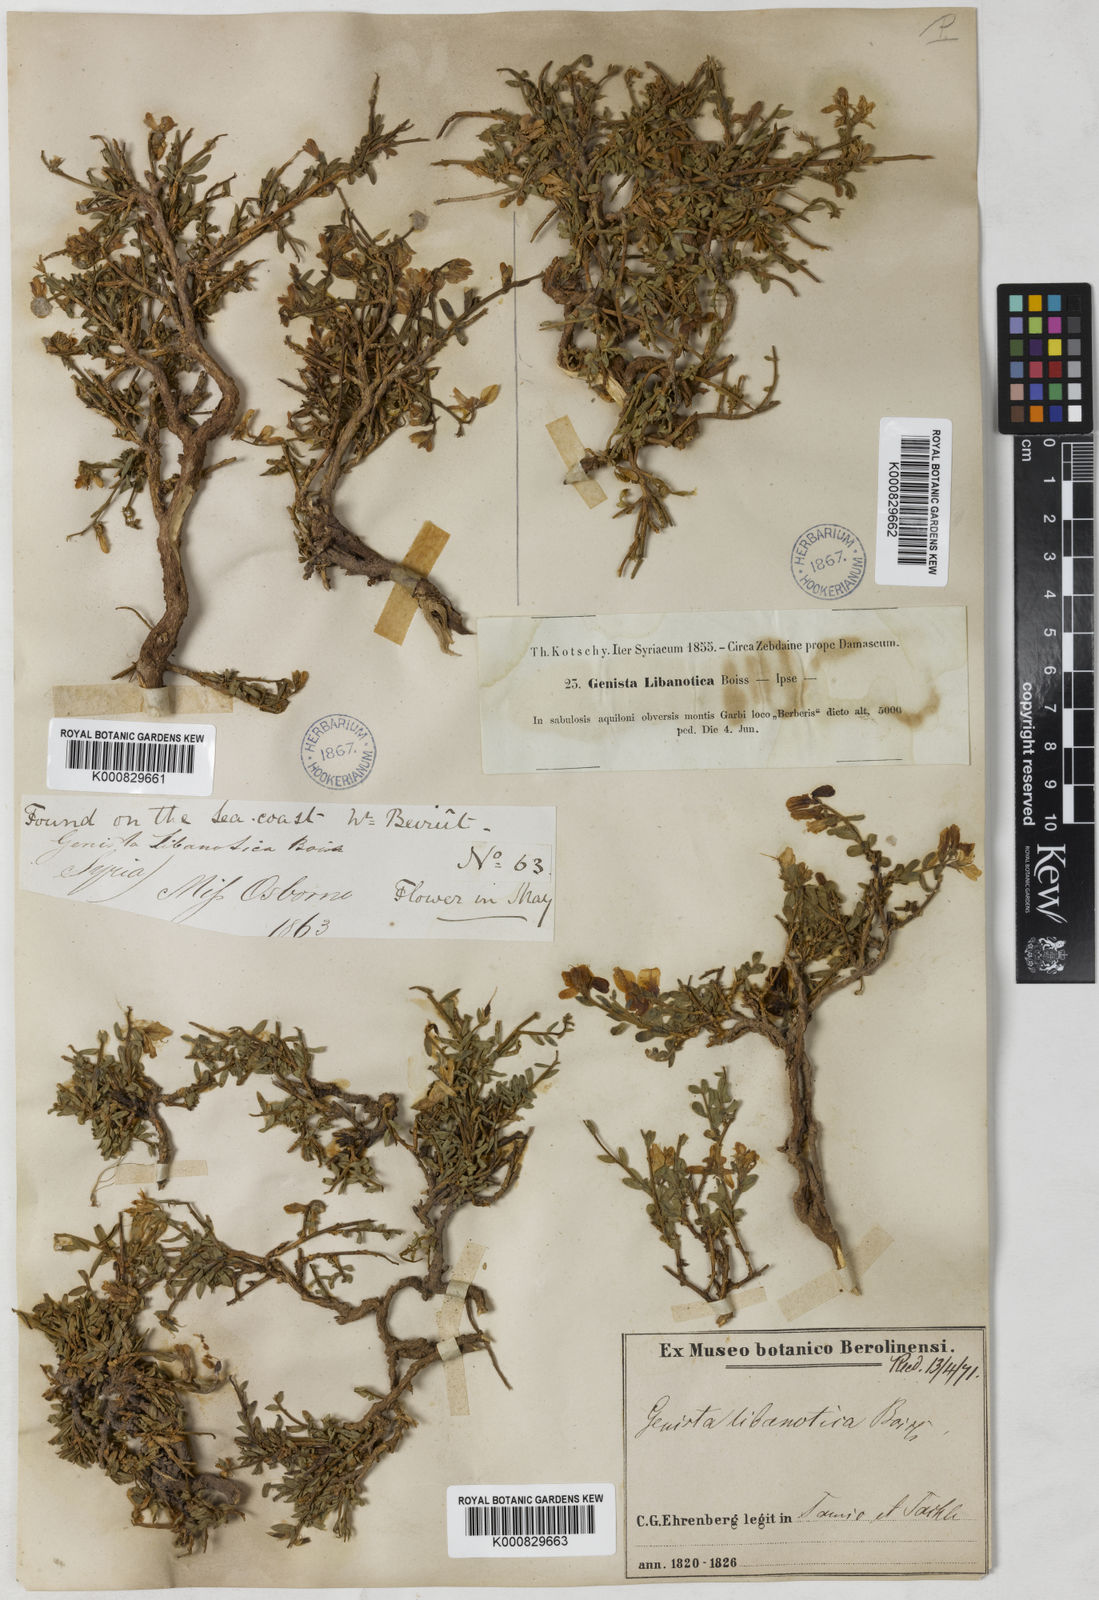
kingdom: Plantae
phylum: Tracheophyta
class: Magnoliopsida
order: Fabales
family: Fabaceae
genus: Genista
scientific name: Genista libanotica
